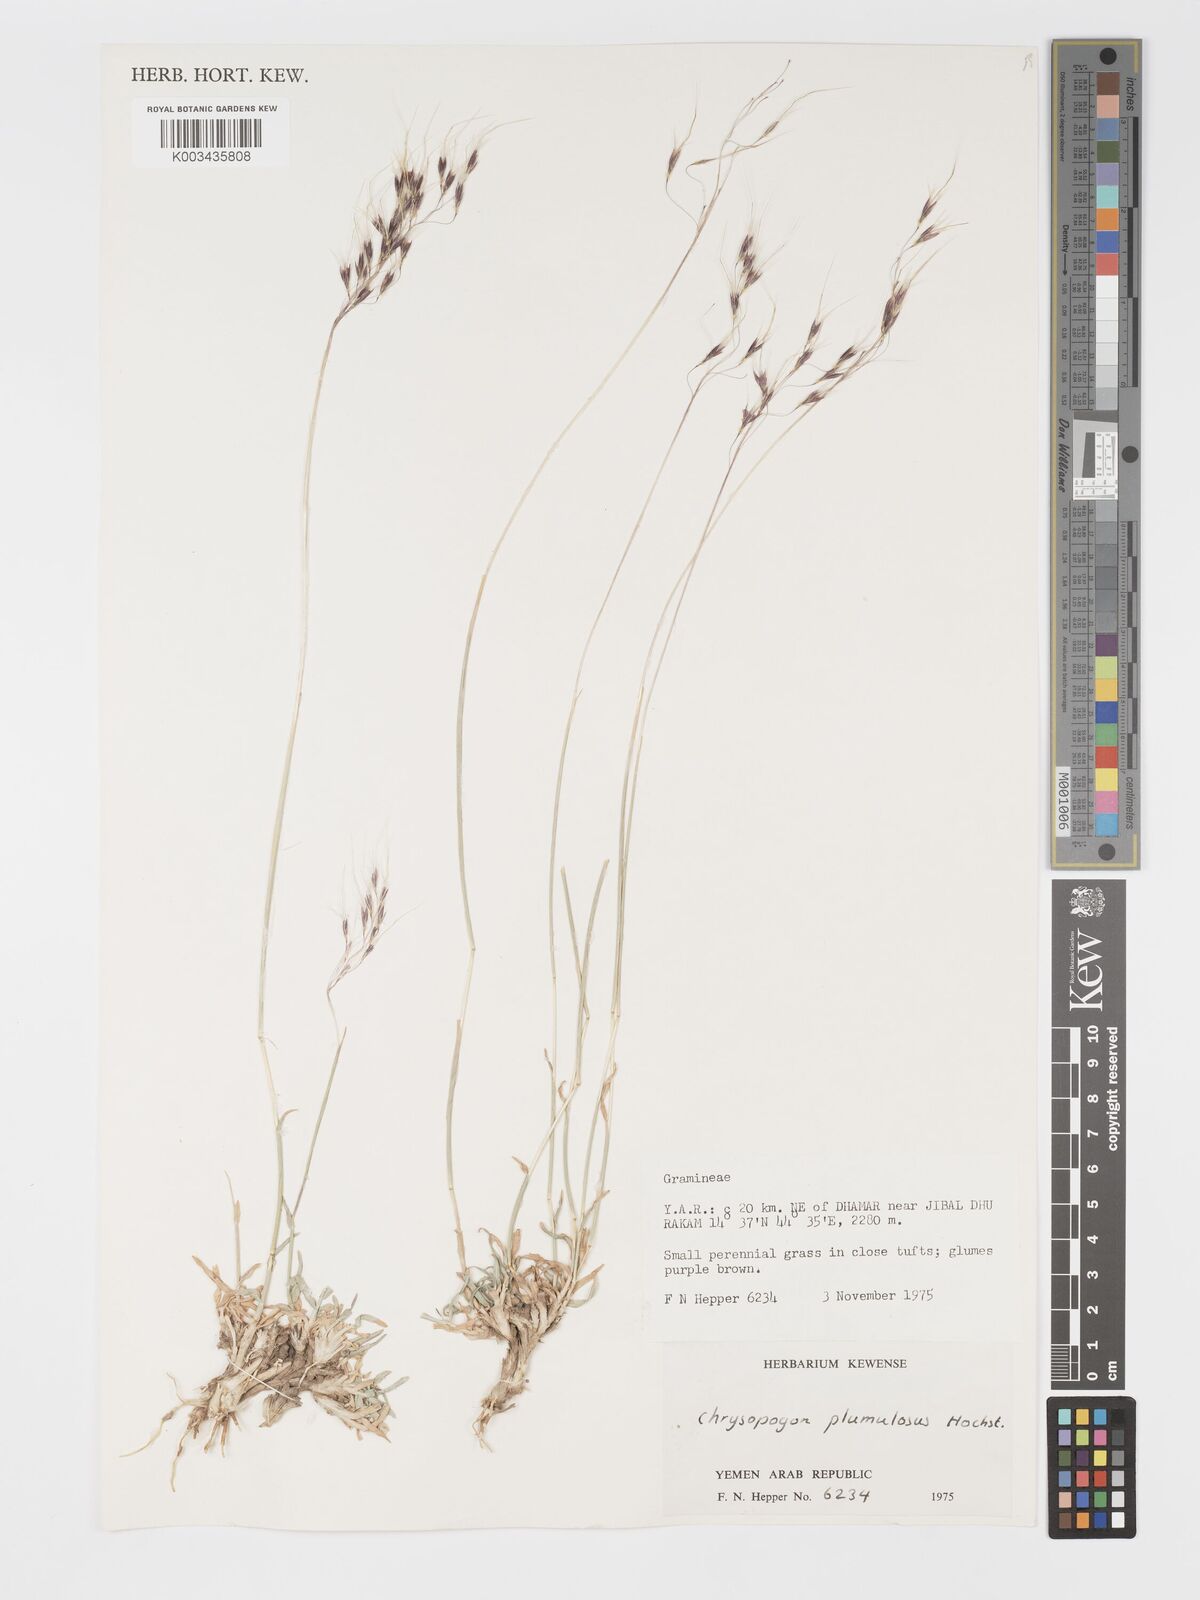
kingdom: Plantae
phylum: Tracheophyta
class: Liliopsida
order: Poales
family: Poaceae
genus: Chrysopogon
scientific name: Chrysopogon plumulosus
